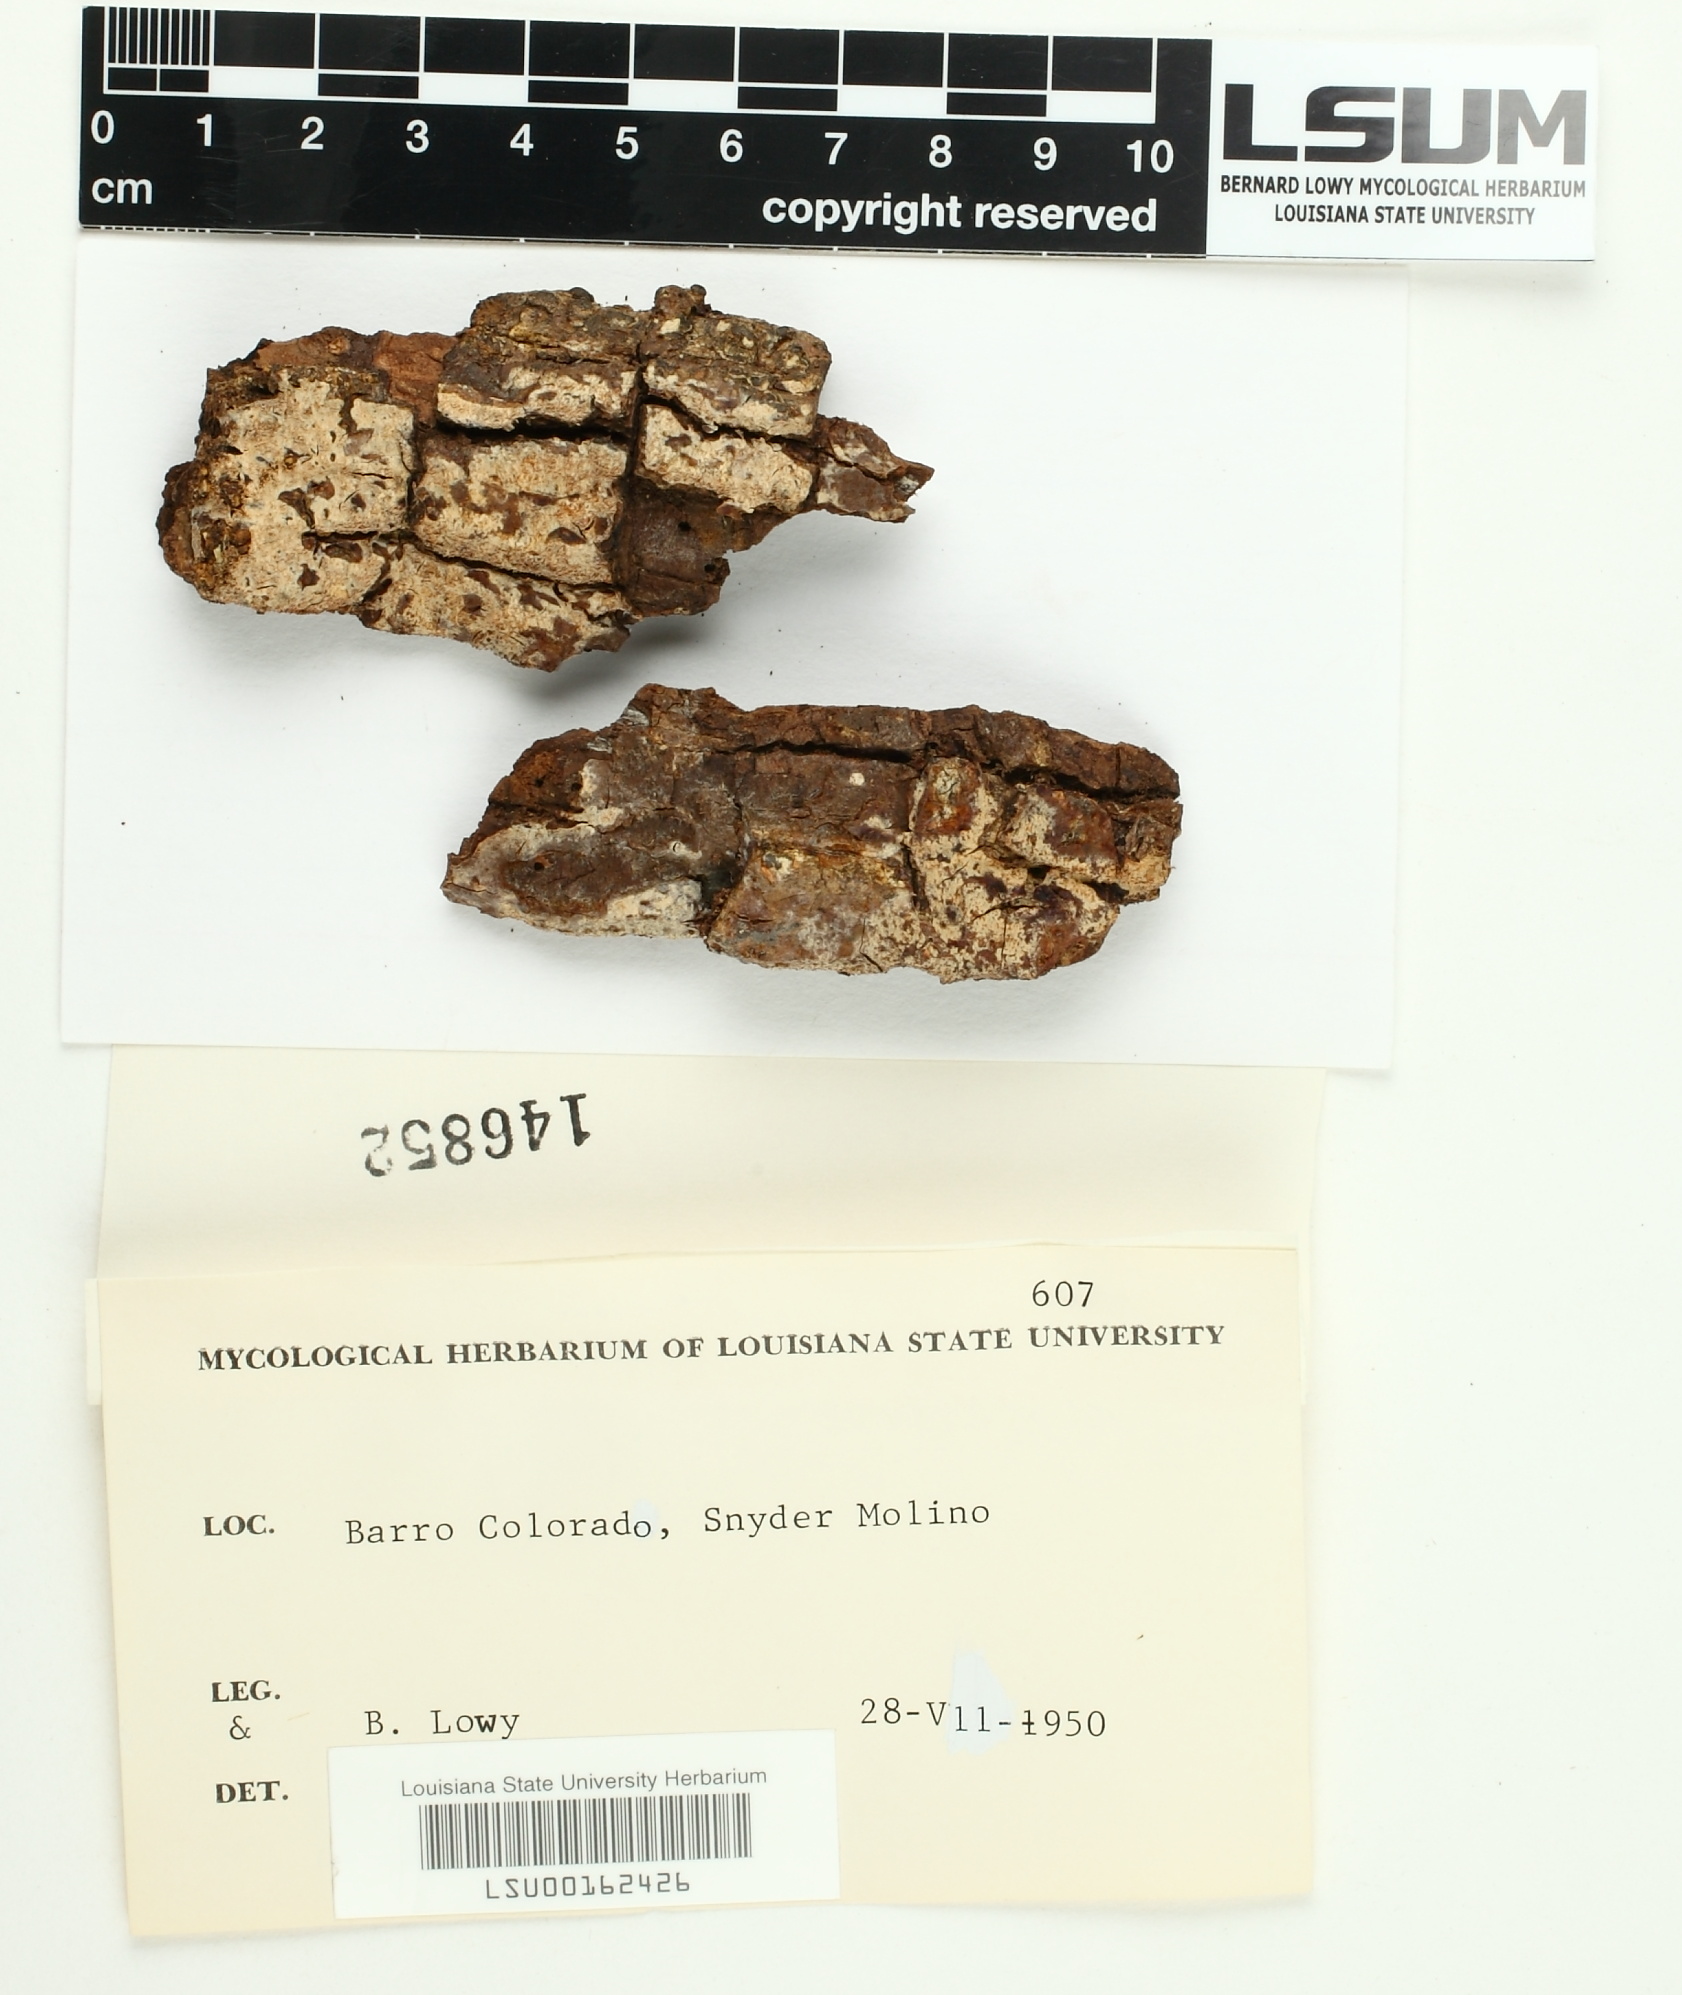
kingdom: Fungi
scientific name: Fungi
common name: Fungi
